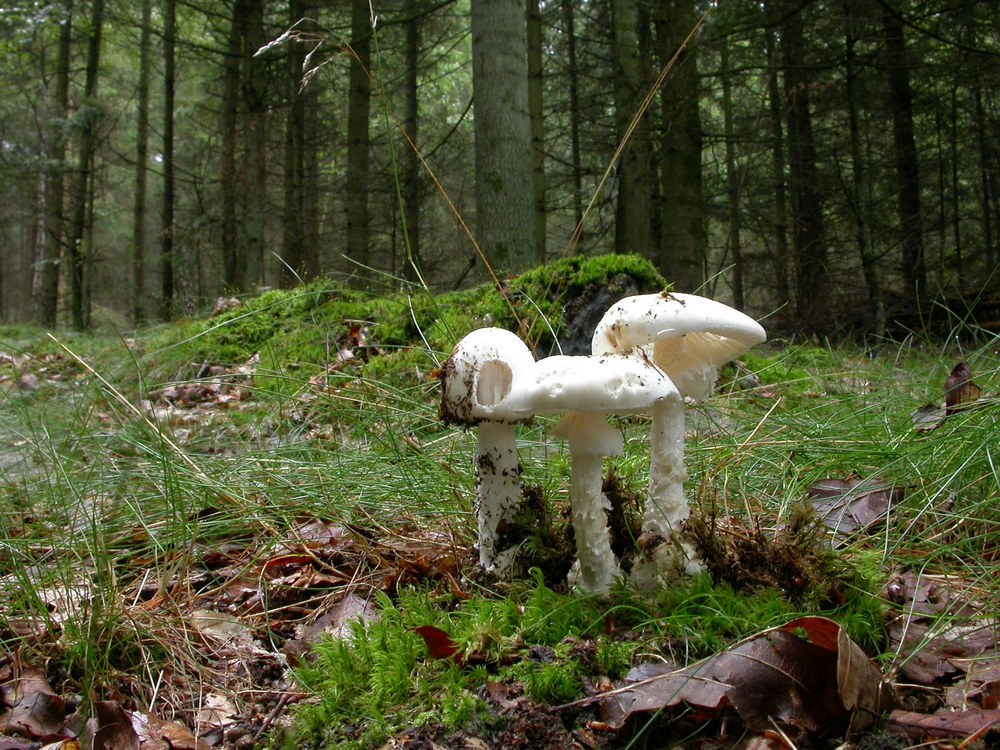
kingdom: Fungi
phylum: Basidiomycota
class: Agaricomycetes
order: Agaricales
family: Amanitaceae
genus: Amanita
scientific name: Amanita virosa
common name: snehvid fluesvamp
